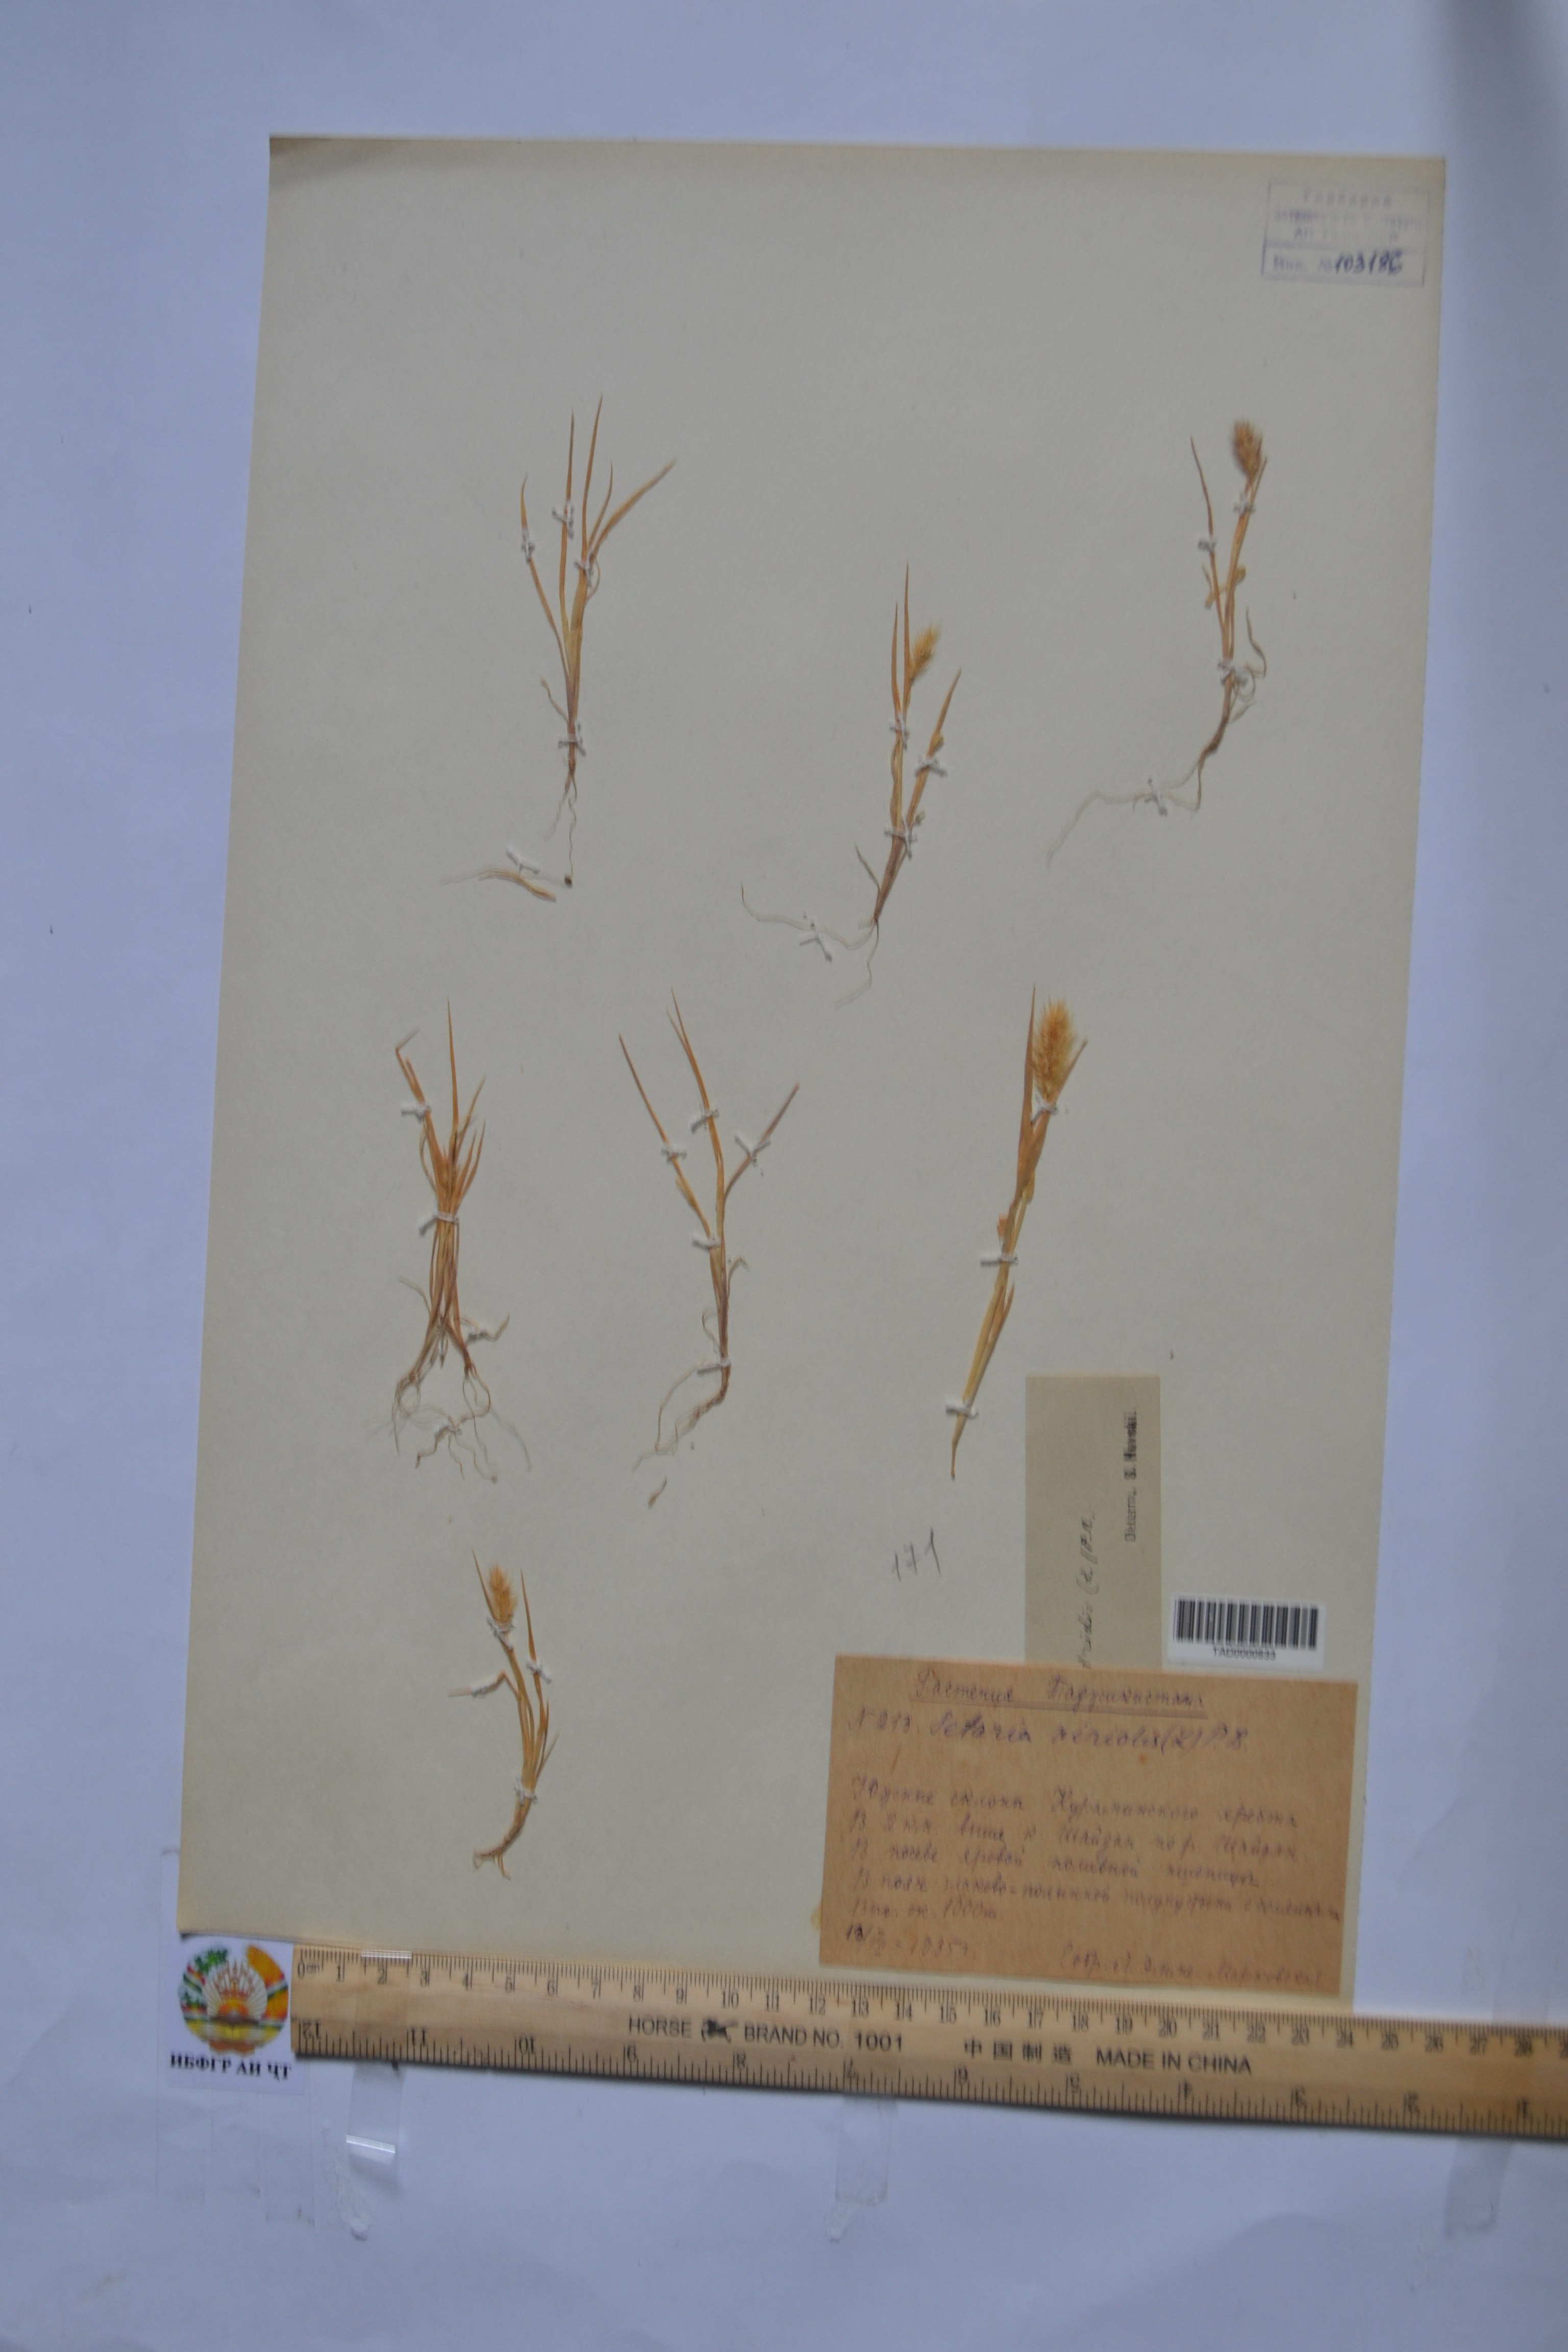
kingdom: Plantae
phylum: Tracheophyta
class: Liliopsida
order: Poales
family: Poaceae
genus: Setaria
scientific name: Setaria viridis
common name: Green bristlegrass
